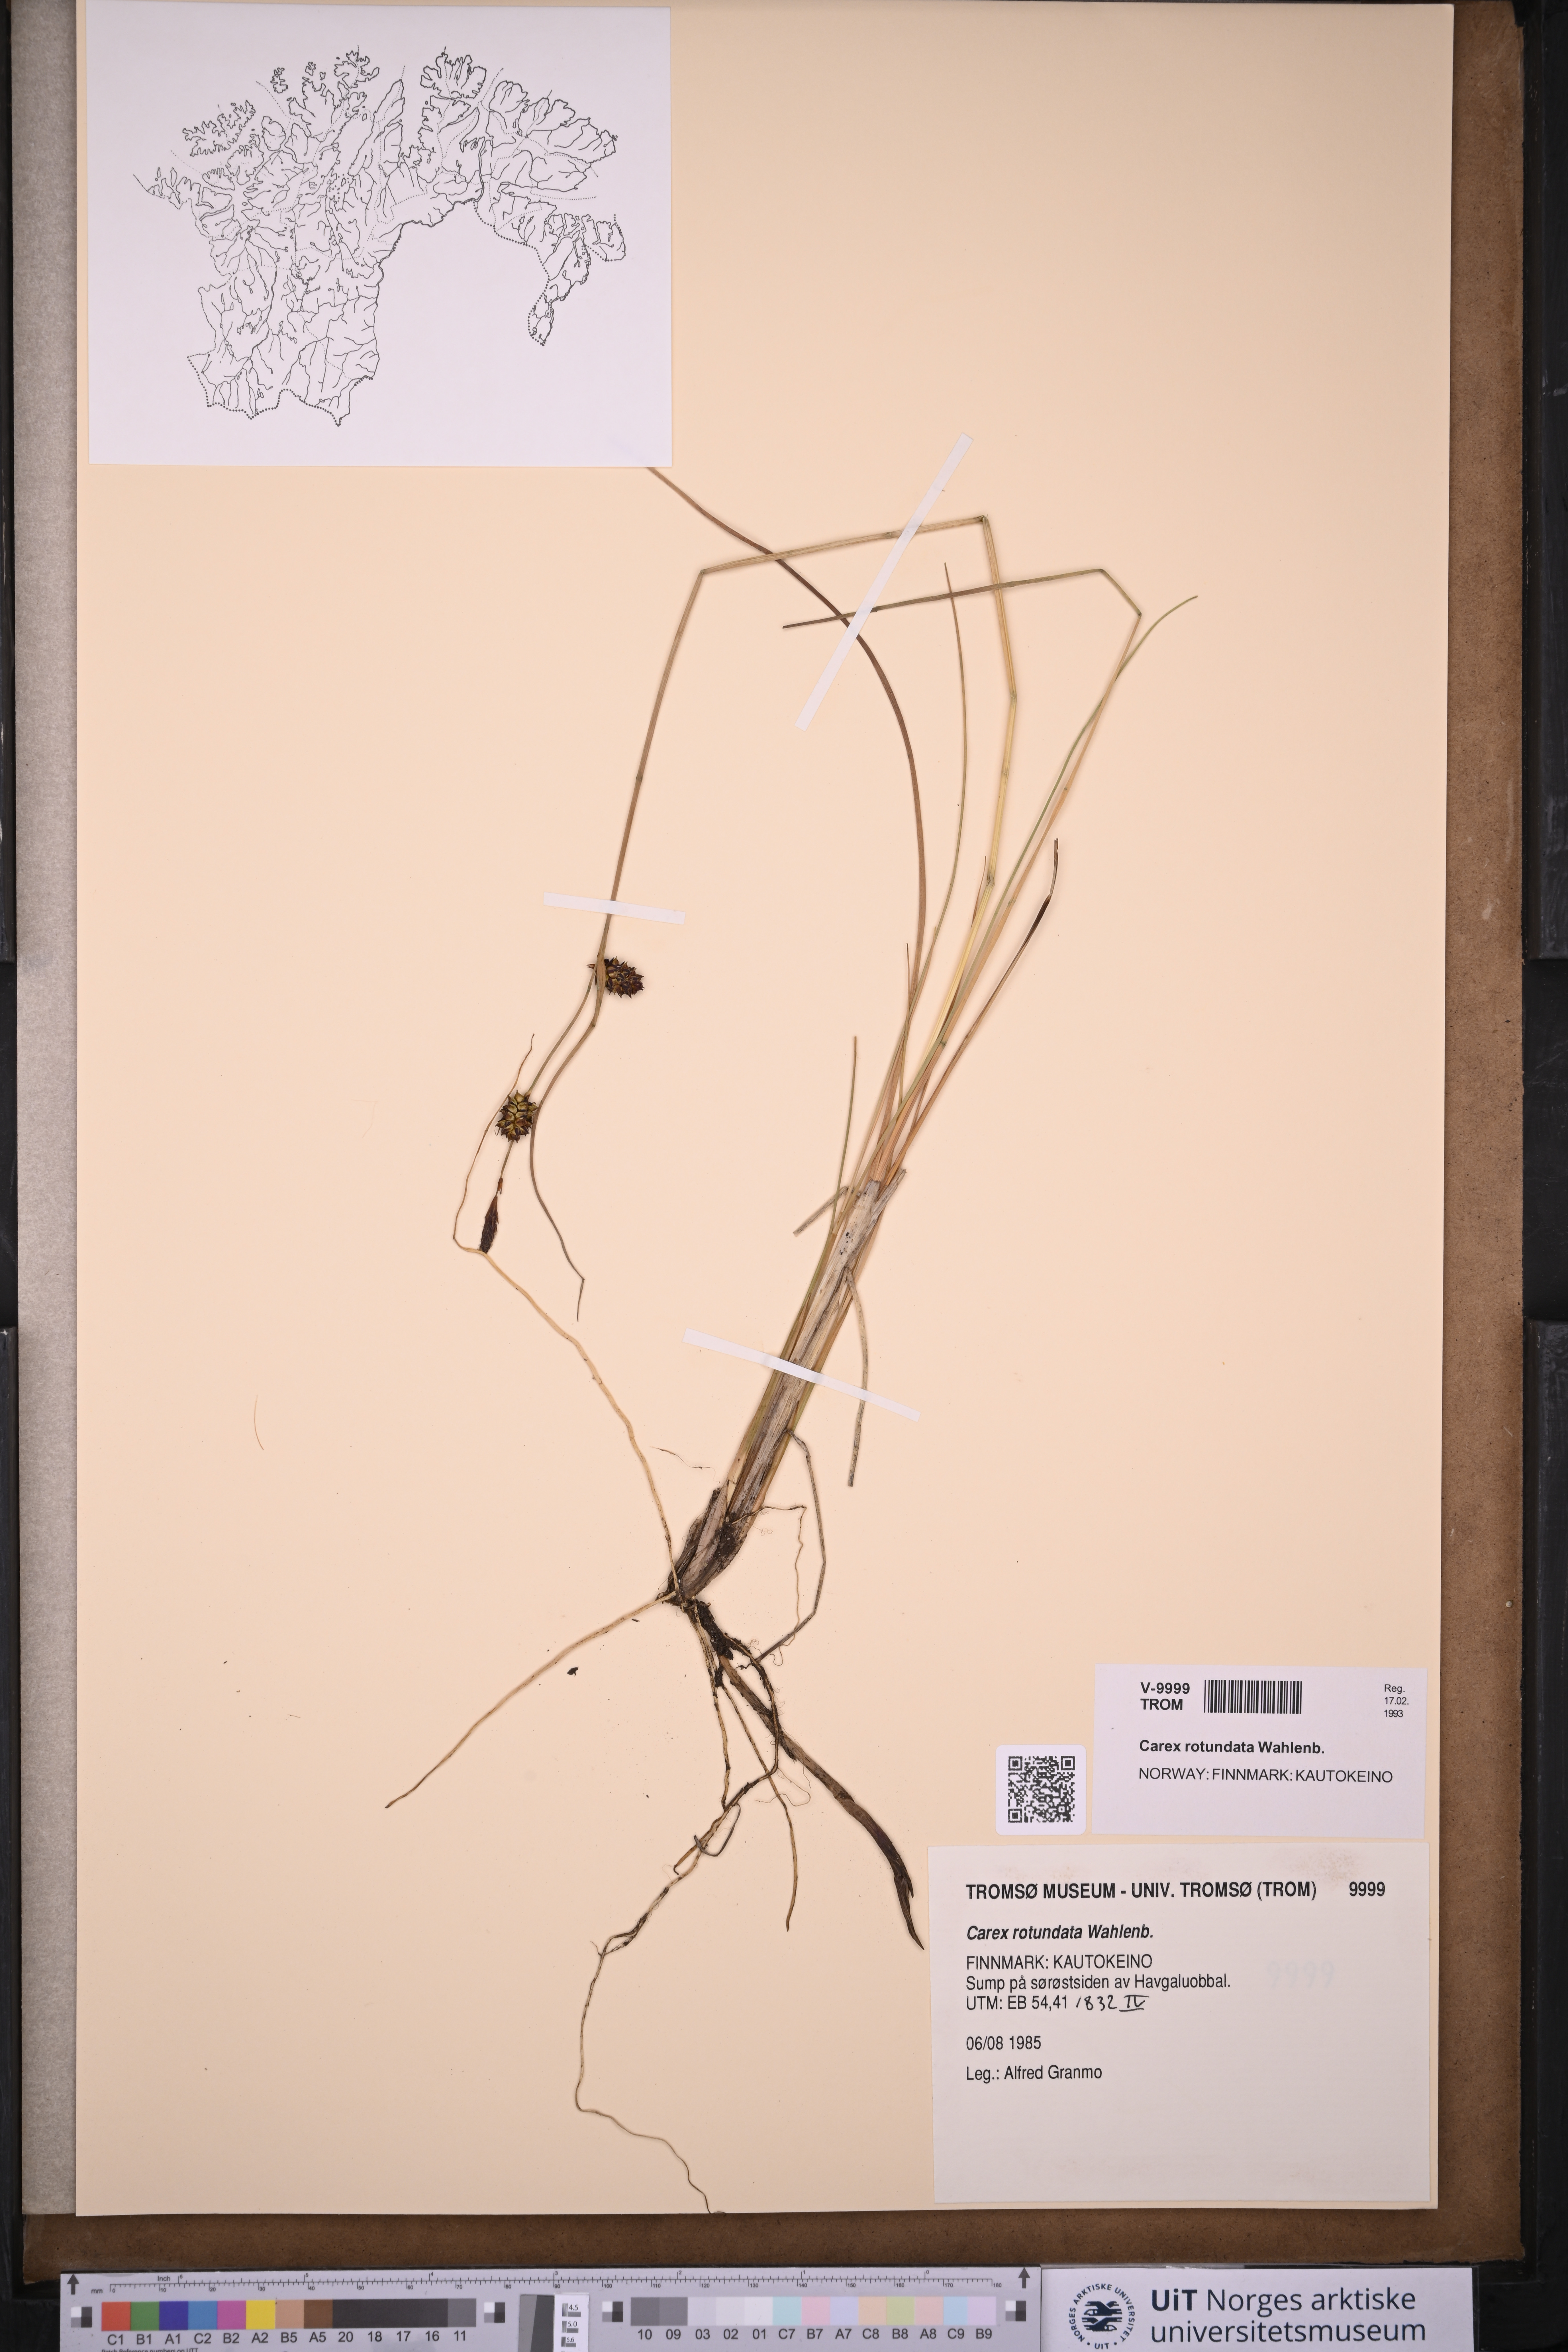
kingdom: Plantae
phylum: Tracheophyta
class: Liliopsida
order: Poales
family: Cyperaceae
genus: Carex
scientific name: Carex rotundata
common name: Round-fruited sedge
